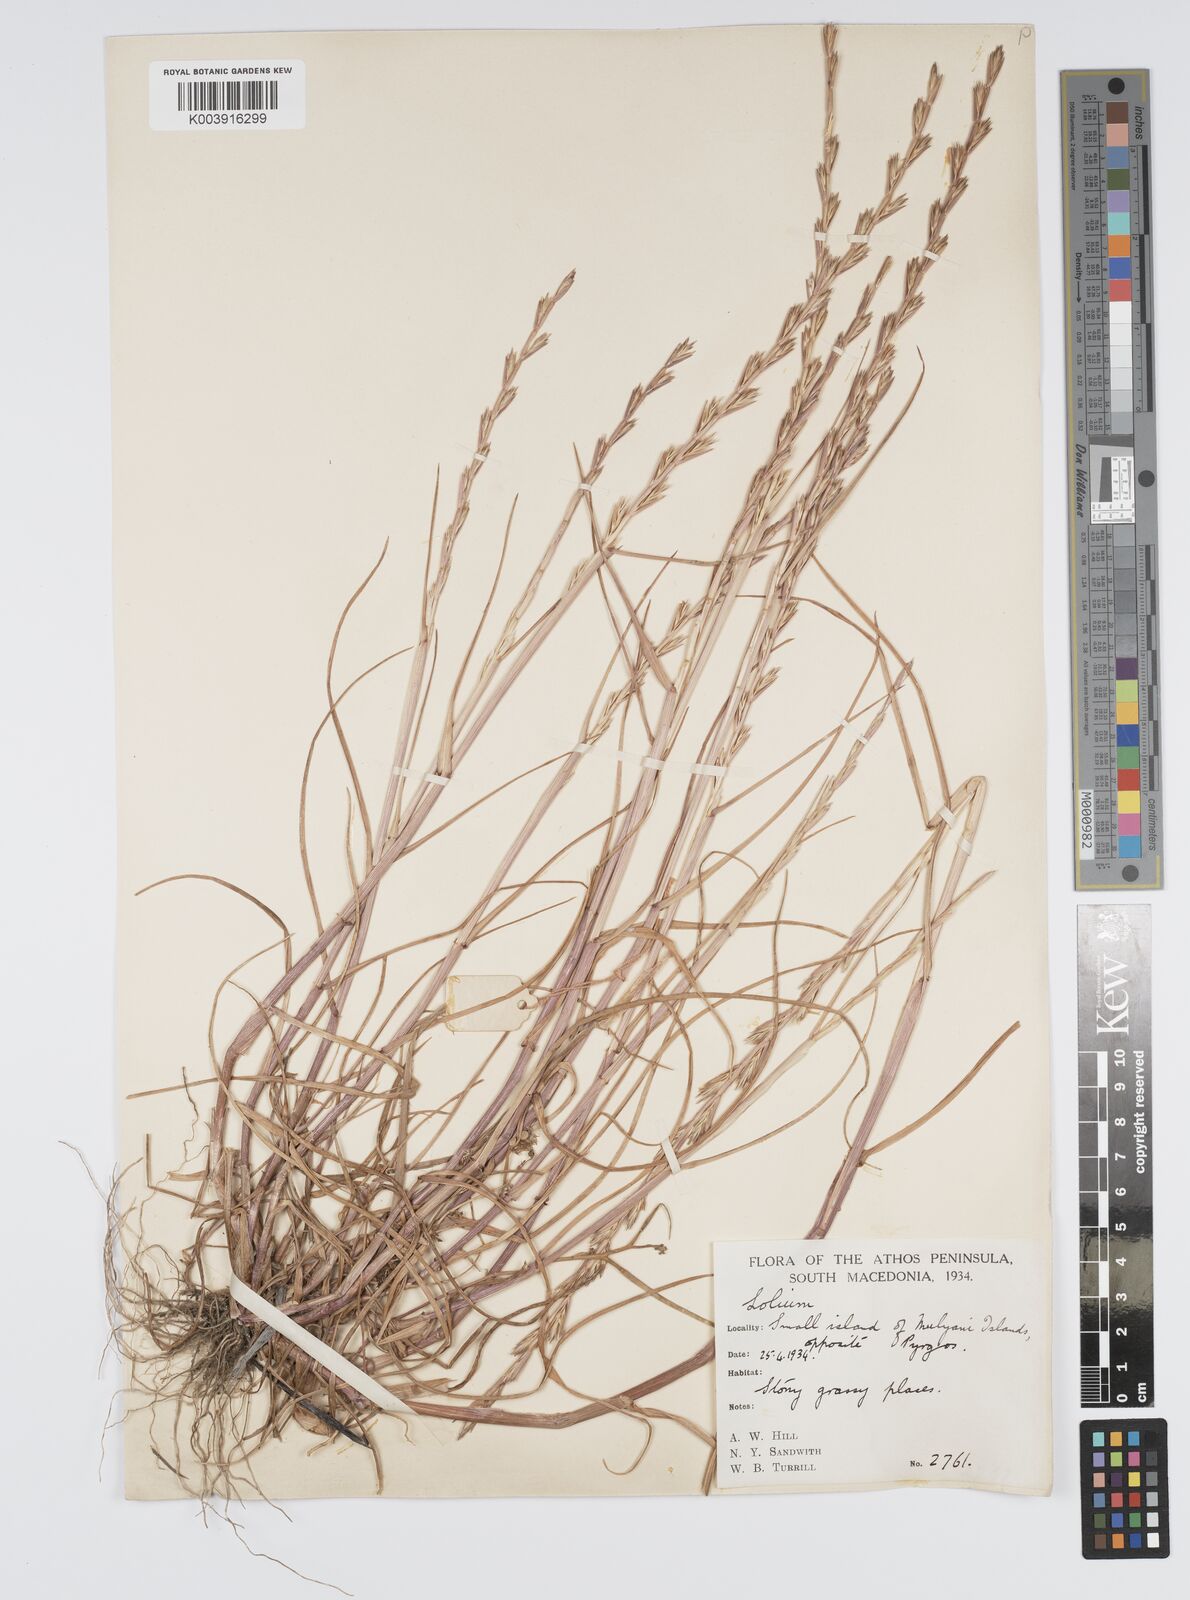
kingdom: Plantae
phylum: Tracheophyta
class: Liliopsida
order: Poales
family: Poaceae
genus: Lolium
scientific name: Lolium rigidum
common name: Wimmera ryegrass
